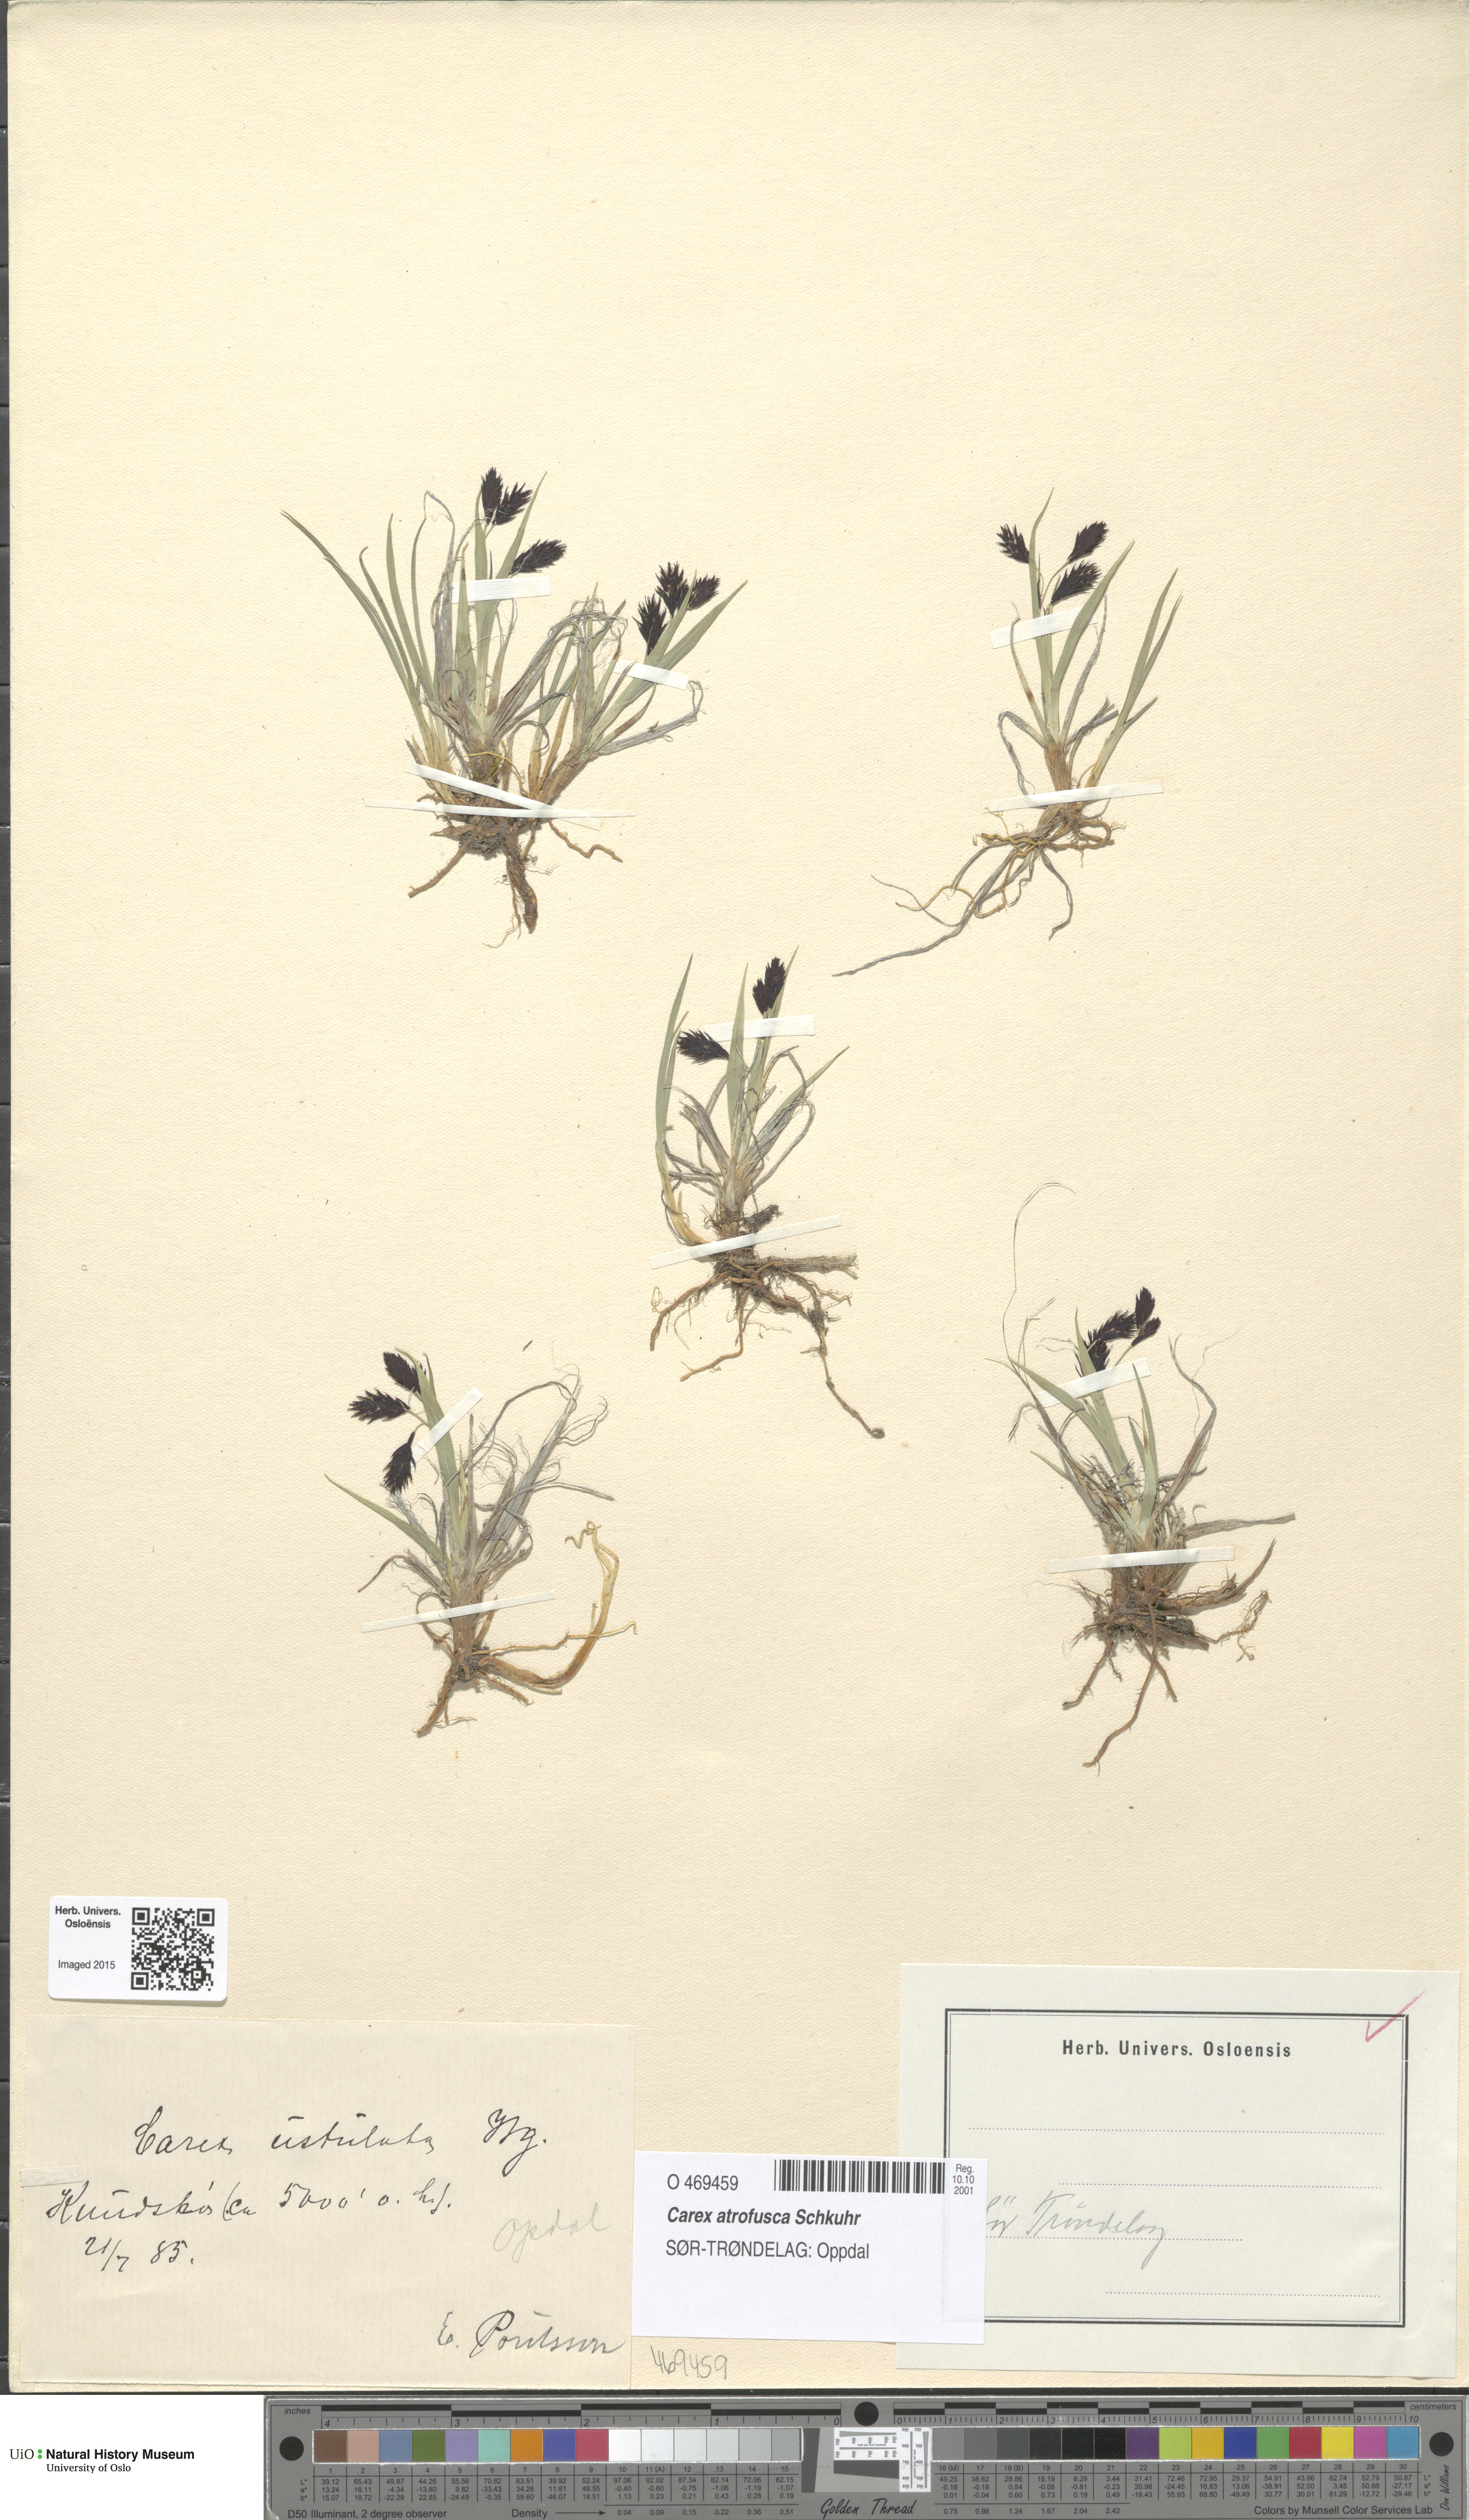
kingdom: Plantae
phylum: Tracheophyta
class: Liliopsida
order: Poales
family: Cyperaceae
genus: Carex
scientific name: Carex atrofusca
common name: Scorched alpine-sedge
